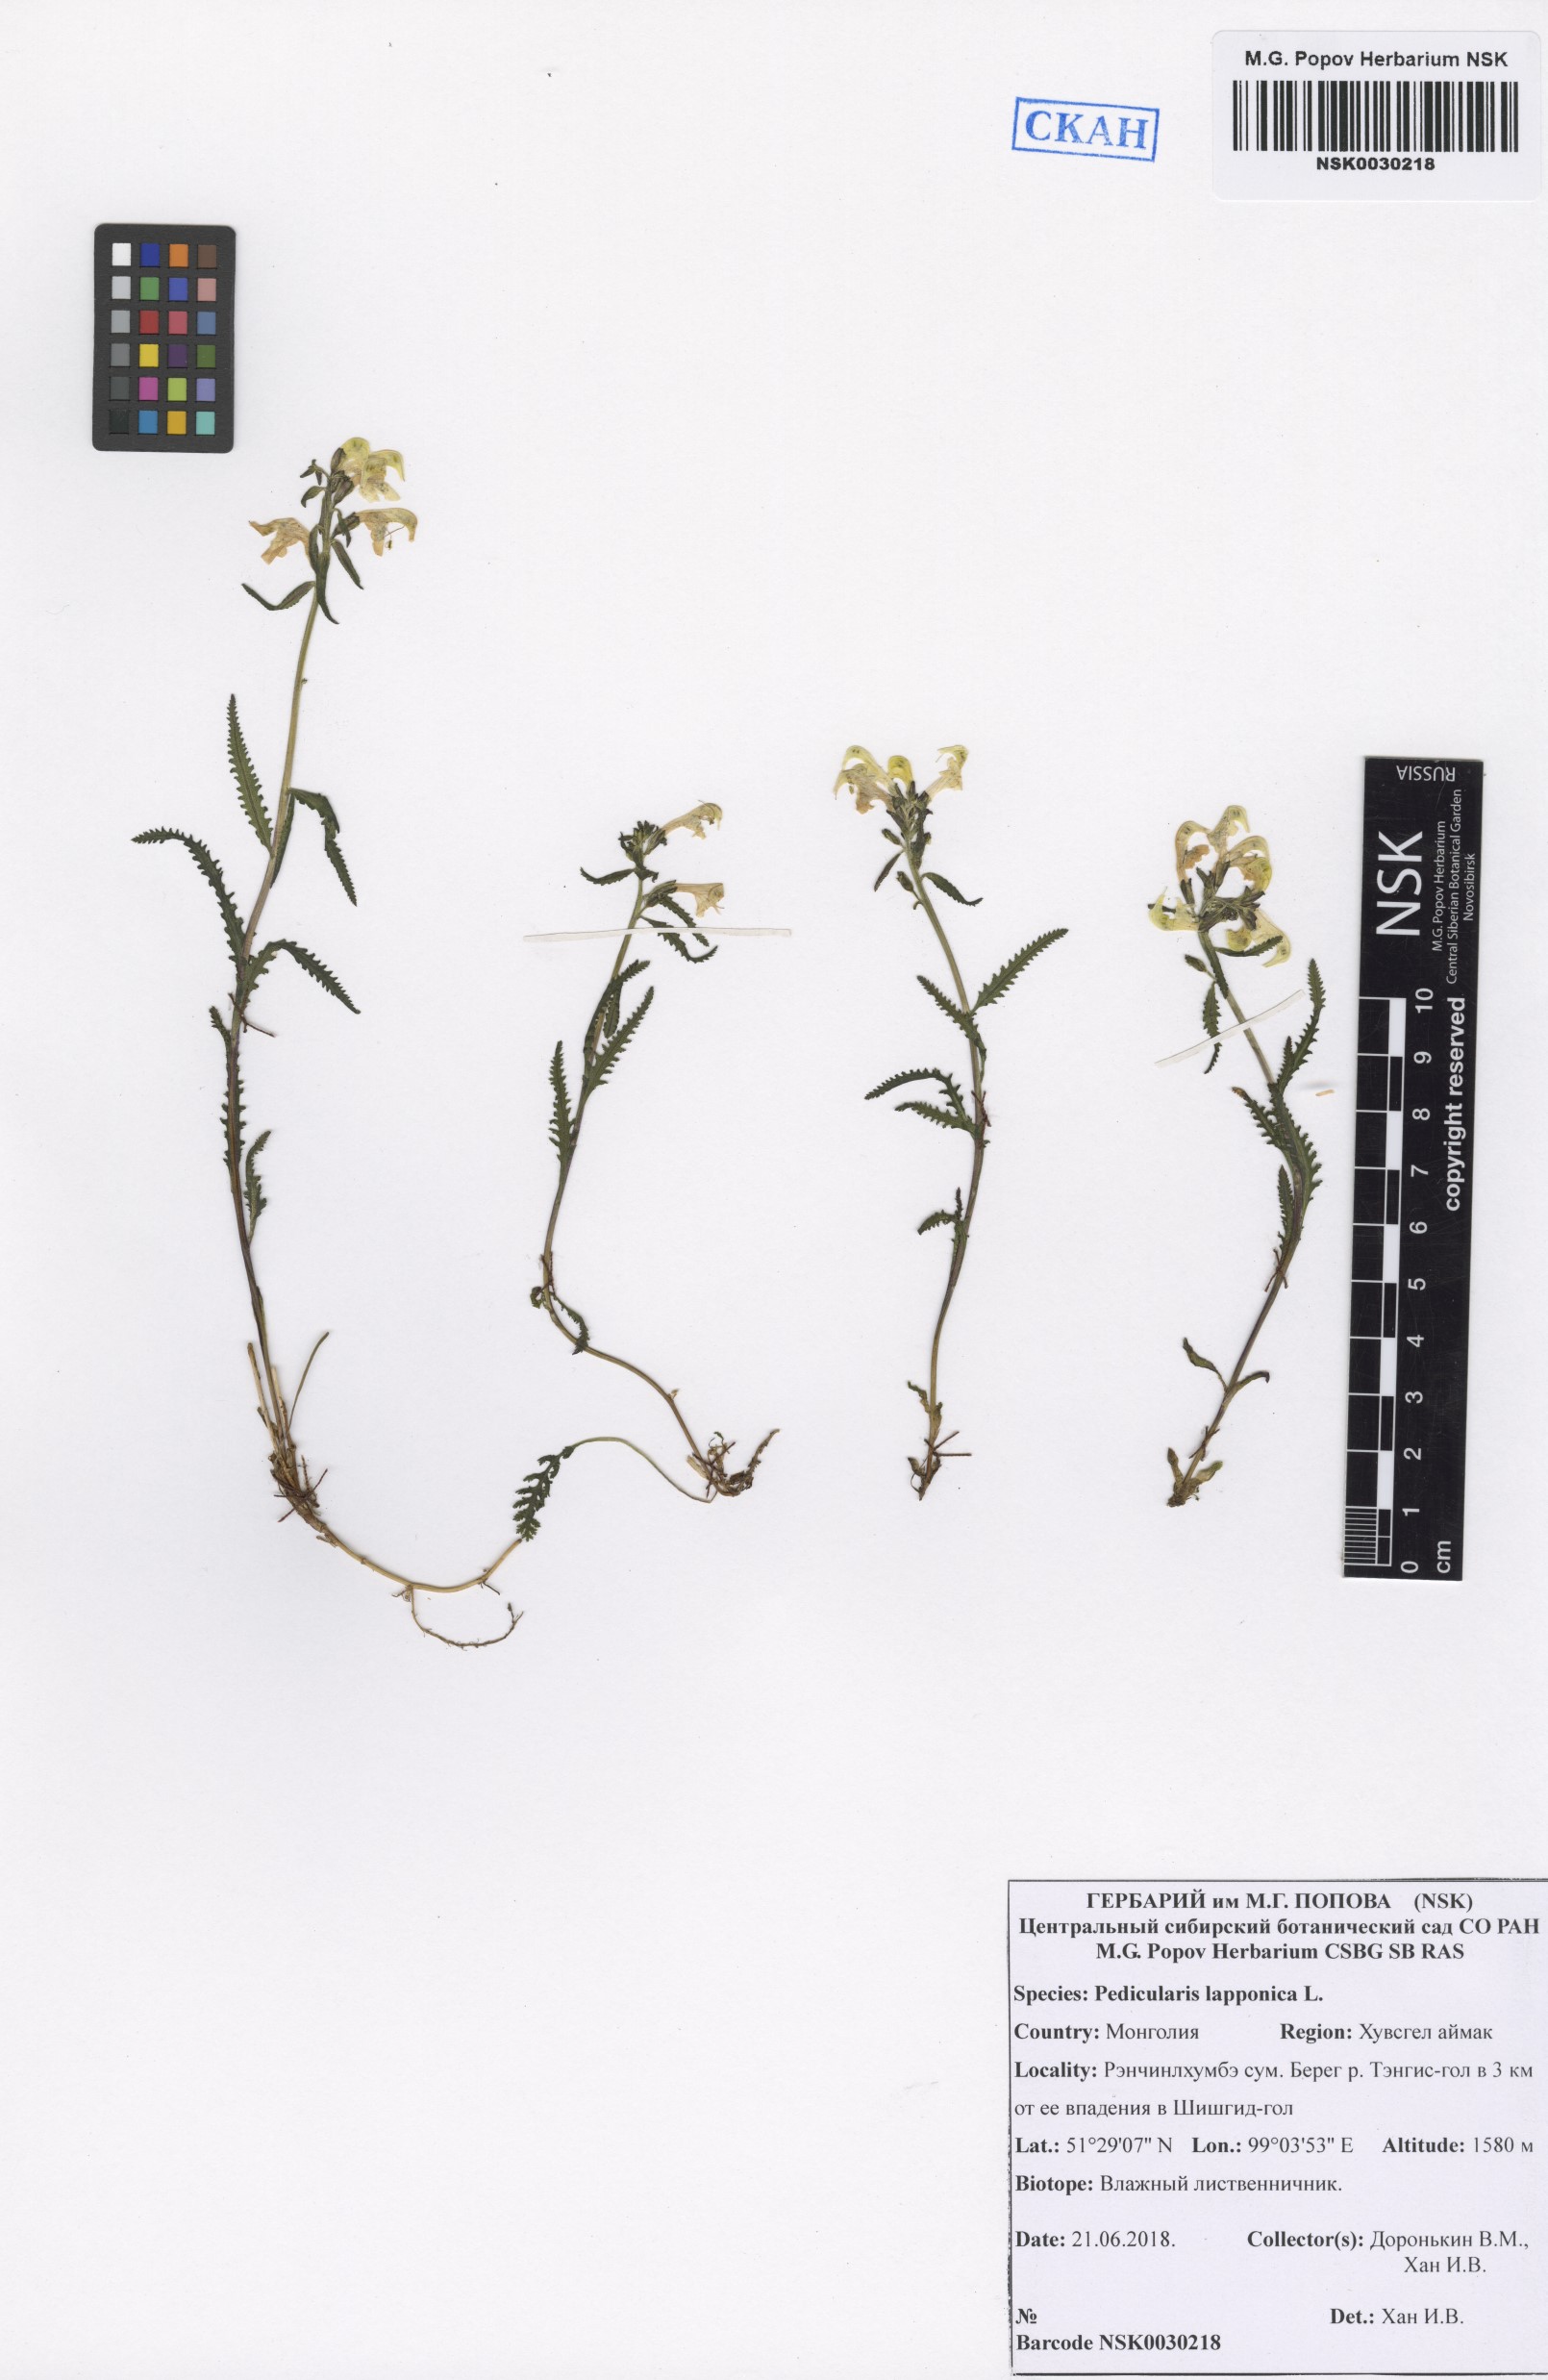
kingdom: Plantae
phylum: Tracheophyta
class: Magnoliopsida
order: Lamiales
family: Orobanchaceae
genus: Pedicularis
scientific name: Pedicularis lapponica
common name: Lapland lousewort
